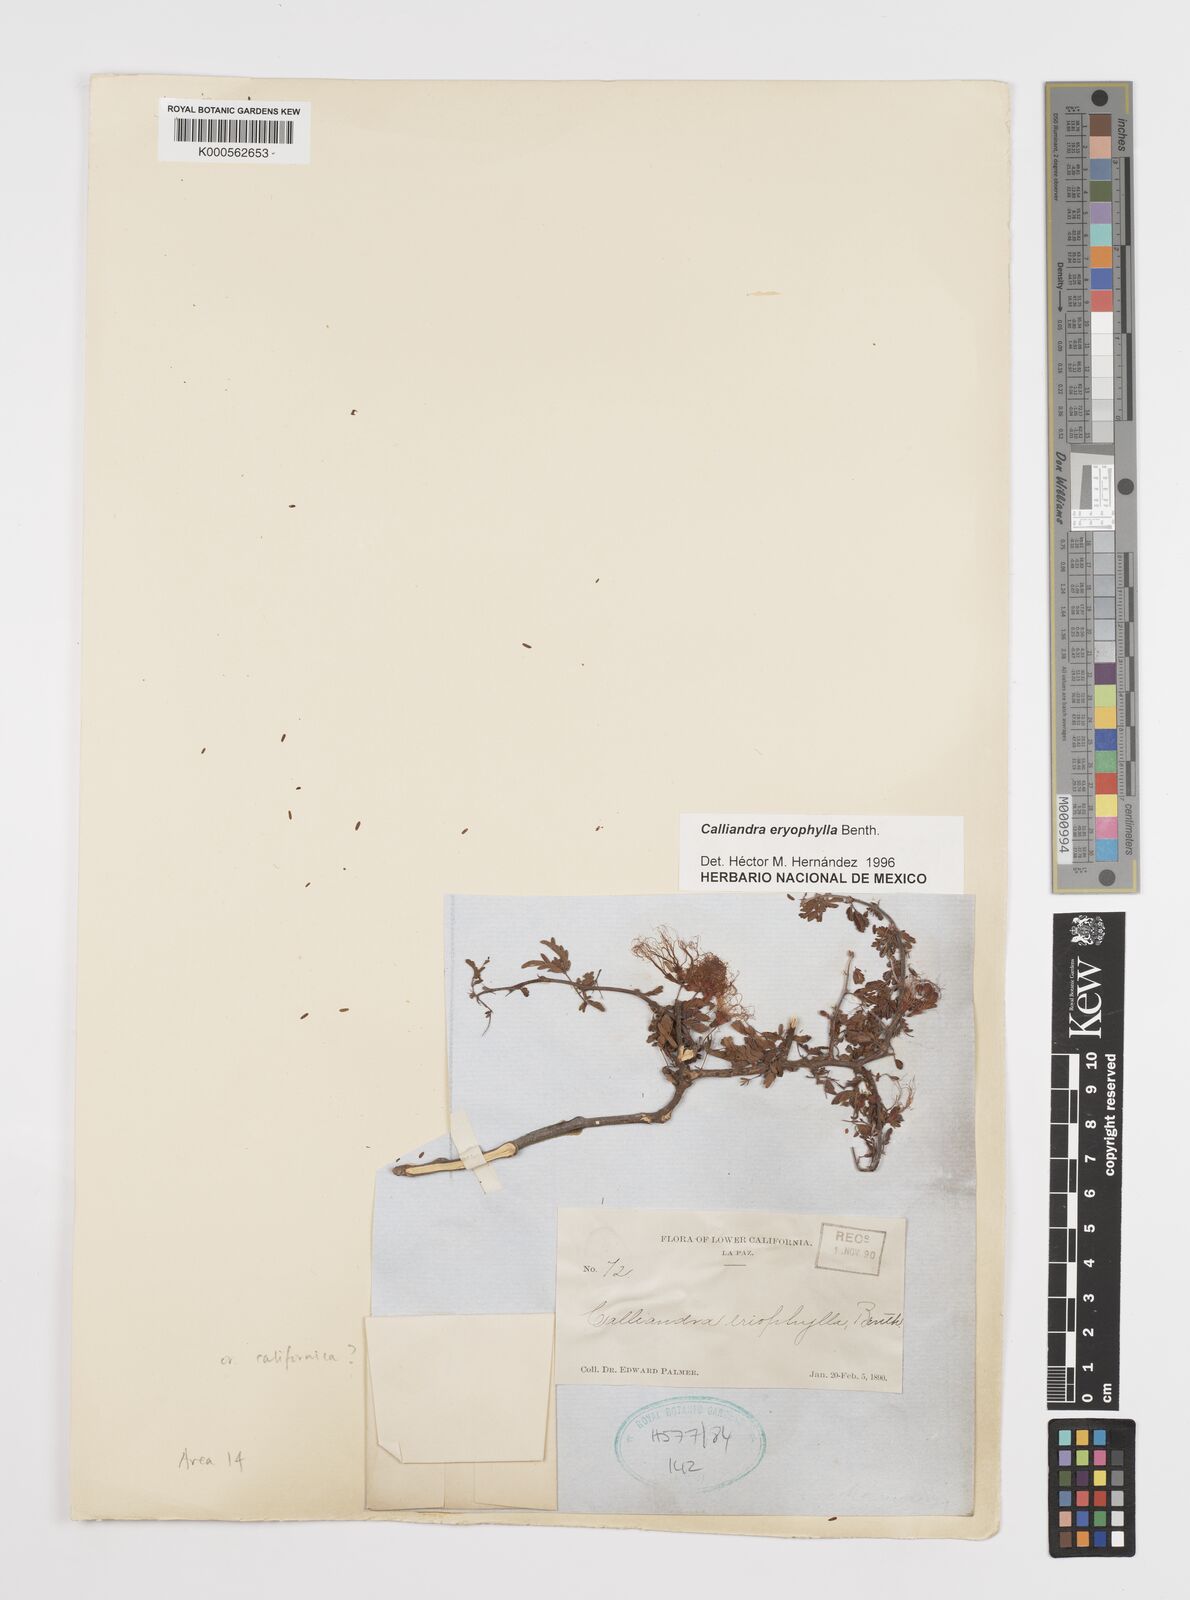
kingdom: Plantae
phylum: Tracheophyta
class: Magnoliopsida
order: Fabales
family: Fabaceae
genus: Calliandra
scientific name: Calliandra eriophylla
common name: Fairy-duster
